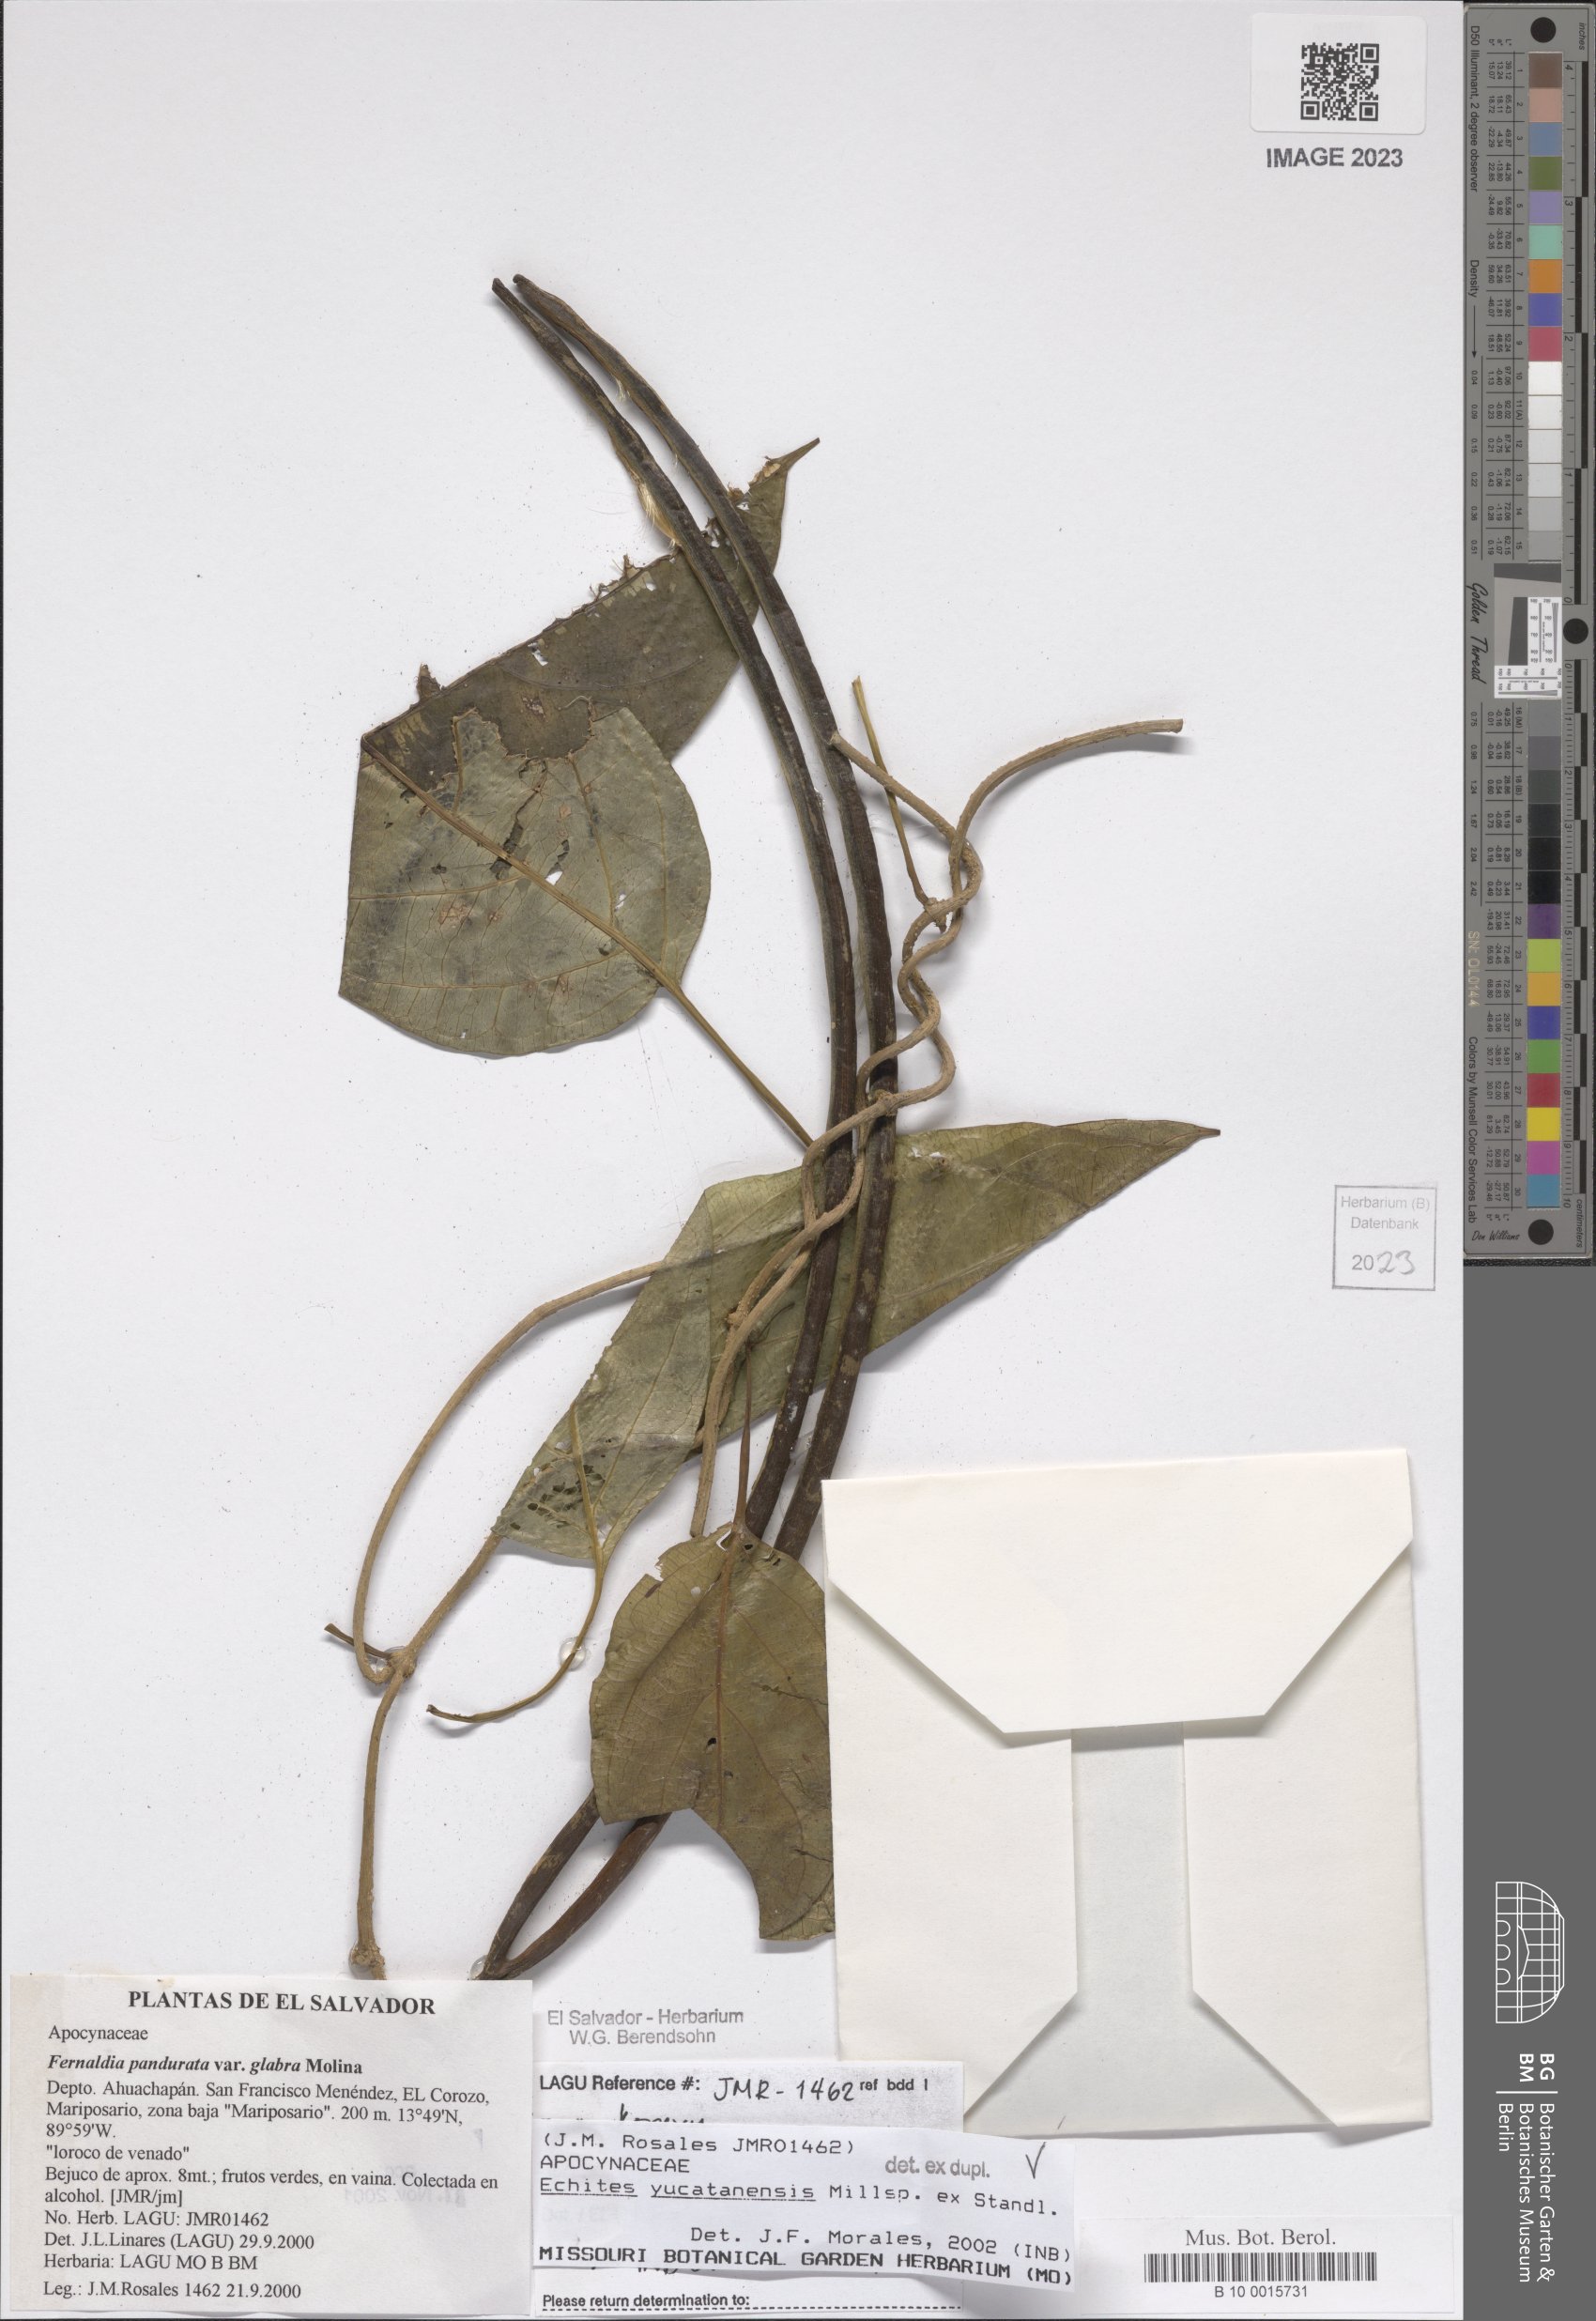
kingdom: Plantae
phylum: Tracheophyta
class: Magnoliopsida
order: Gentianales
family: Apocynaceae
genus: Echites
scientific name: Echites yucatanensis
